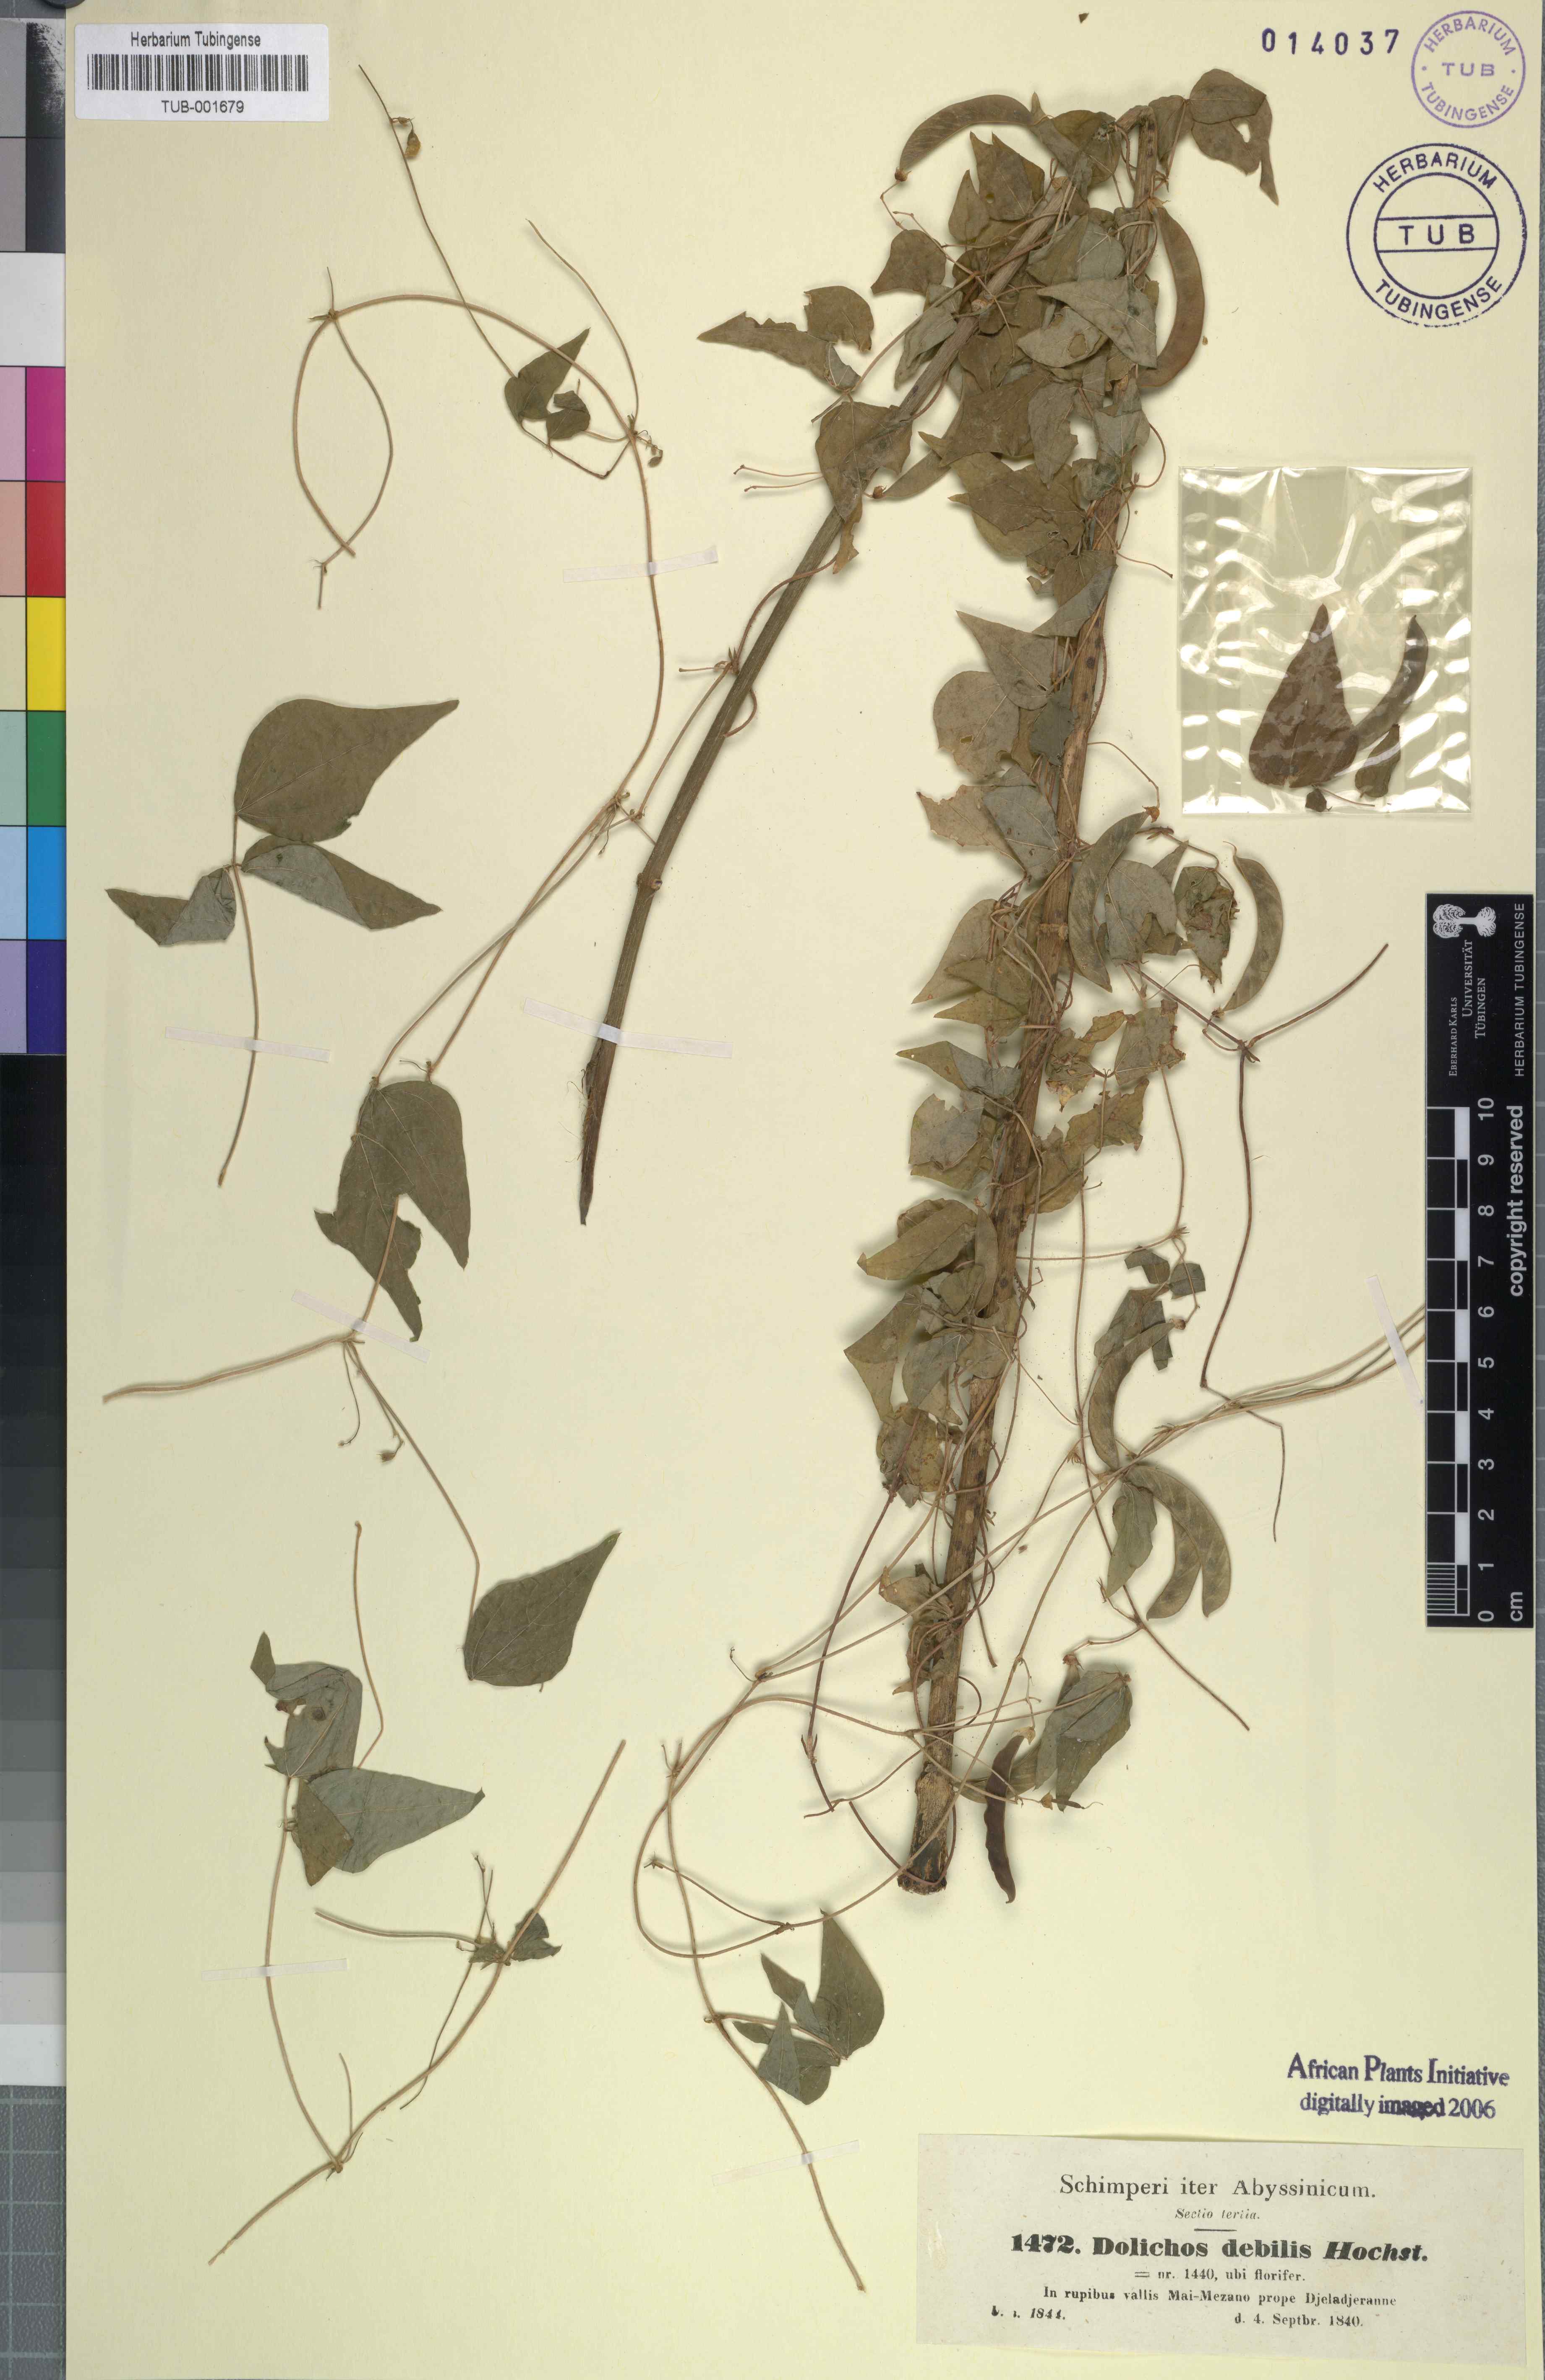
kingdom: Plantae
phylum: Tracheophyta
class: Magnoliopsida
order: Fabales
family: Fabaceae
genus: Dolichos
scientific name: Dolichos trilobus
